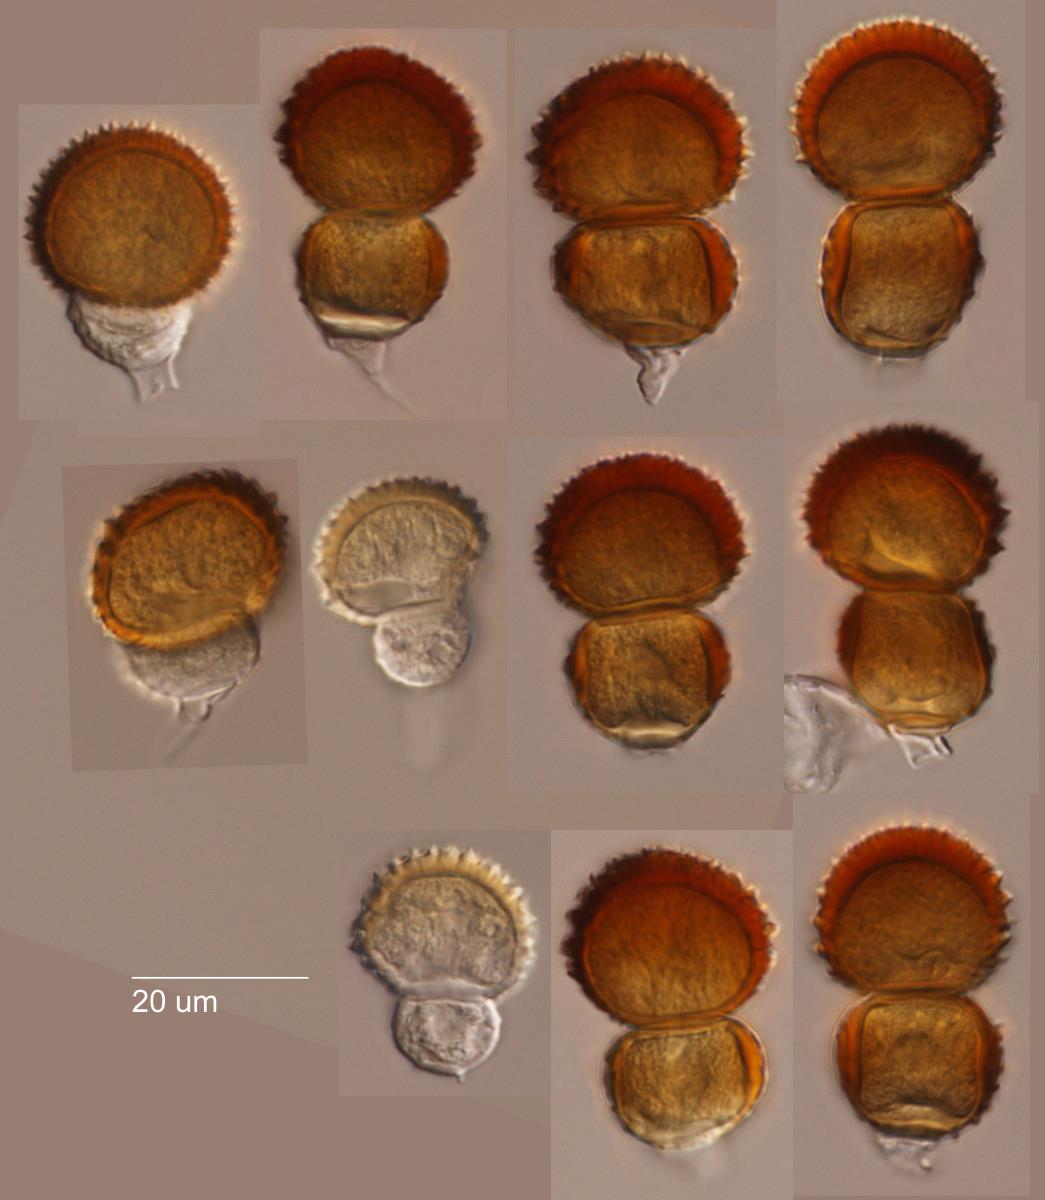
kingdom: Fungi
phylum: Basidiomycota
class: Pucciniomycetes
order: Pucciniales
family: Tranzscheliaceae
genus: Tranzschelia
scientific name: Tranzschelia discolor
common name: Plum rust
